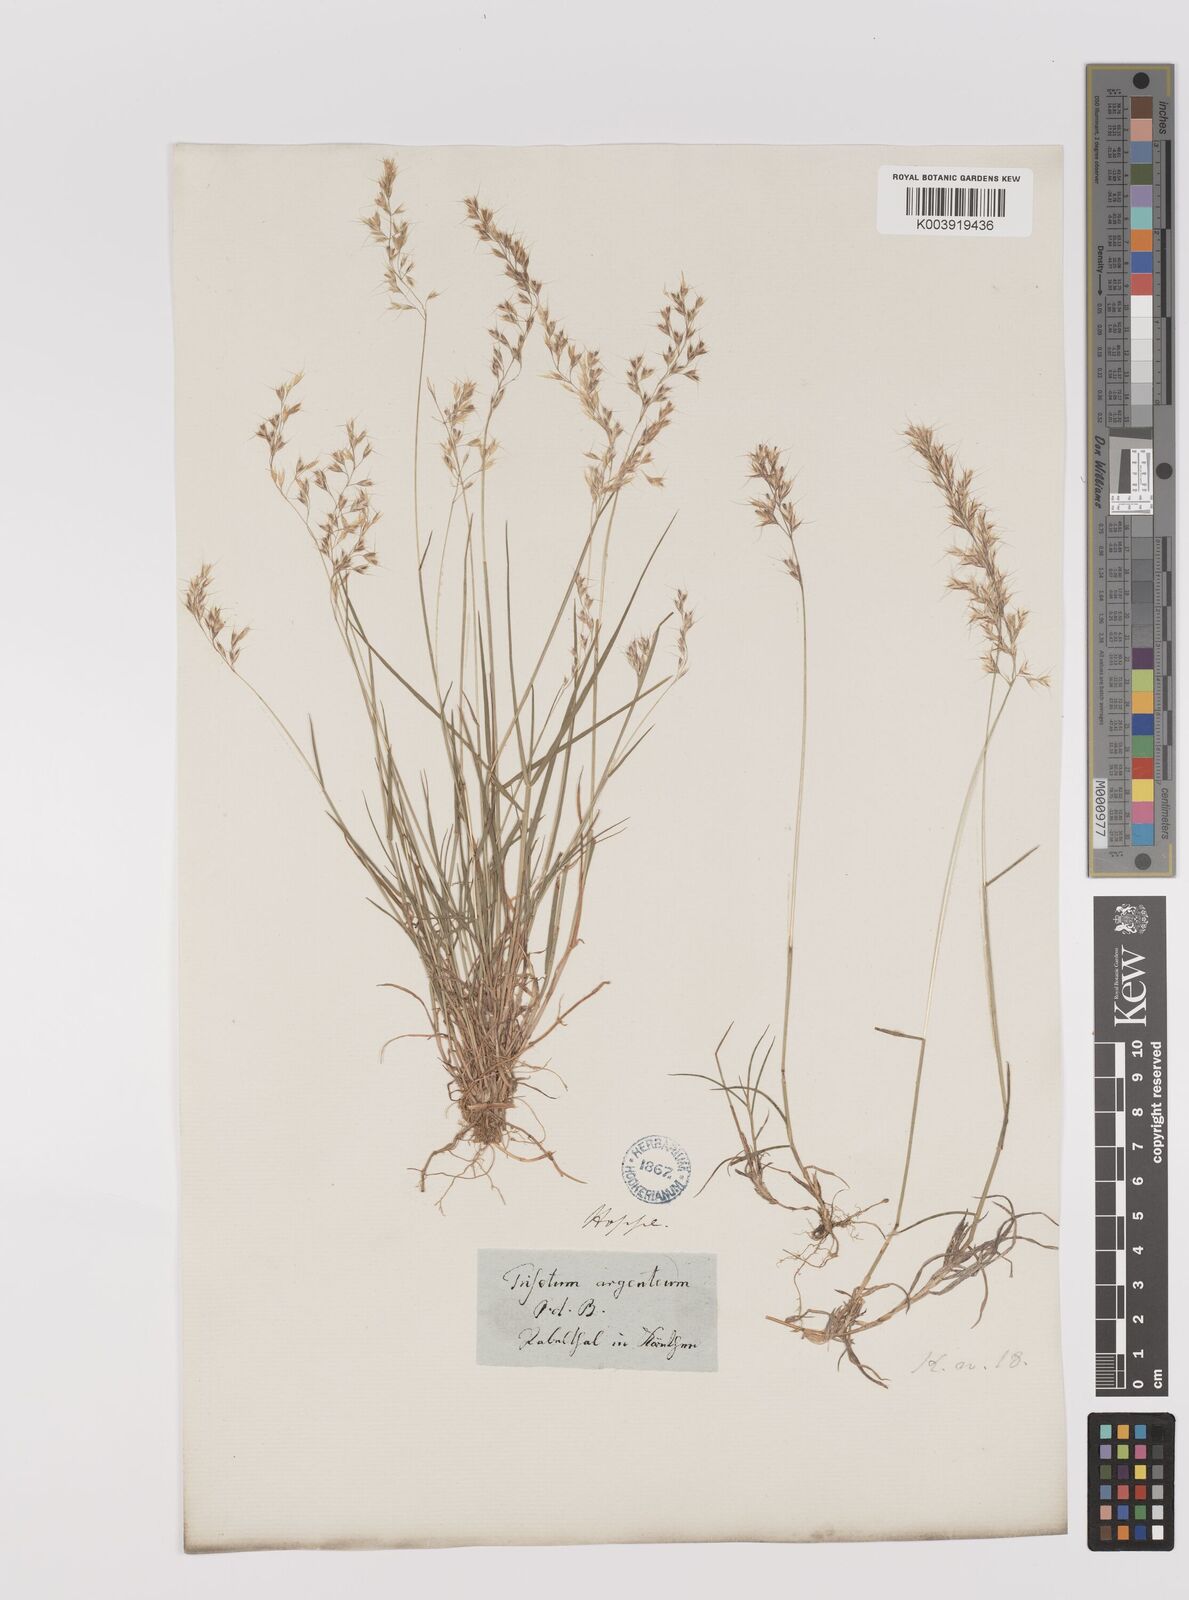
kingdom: Plantae
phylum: Tracheophyta
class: Liliopsida
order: Poales
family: Poaceae
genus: Trisetum
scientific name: Trisetum argenteum
